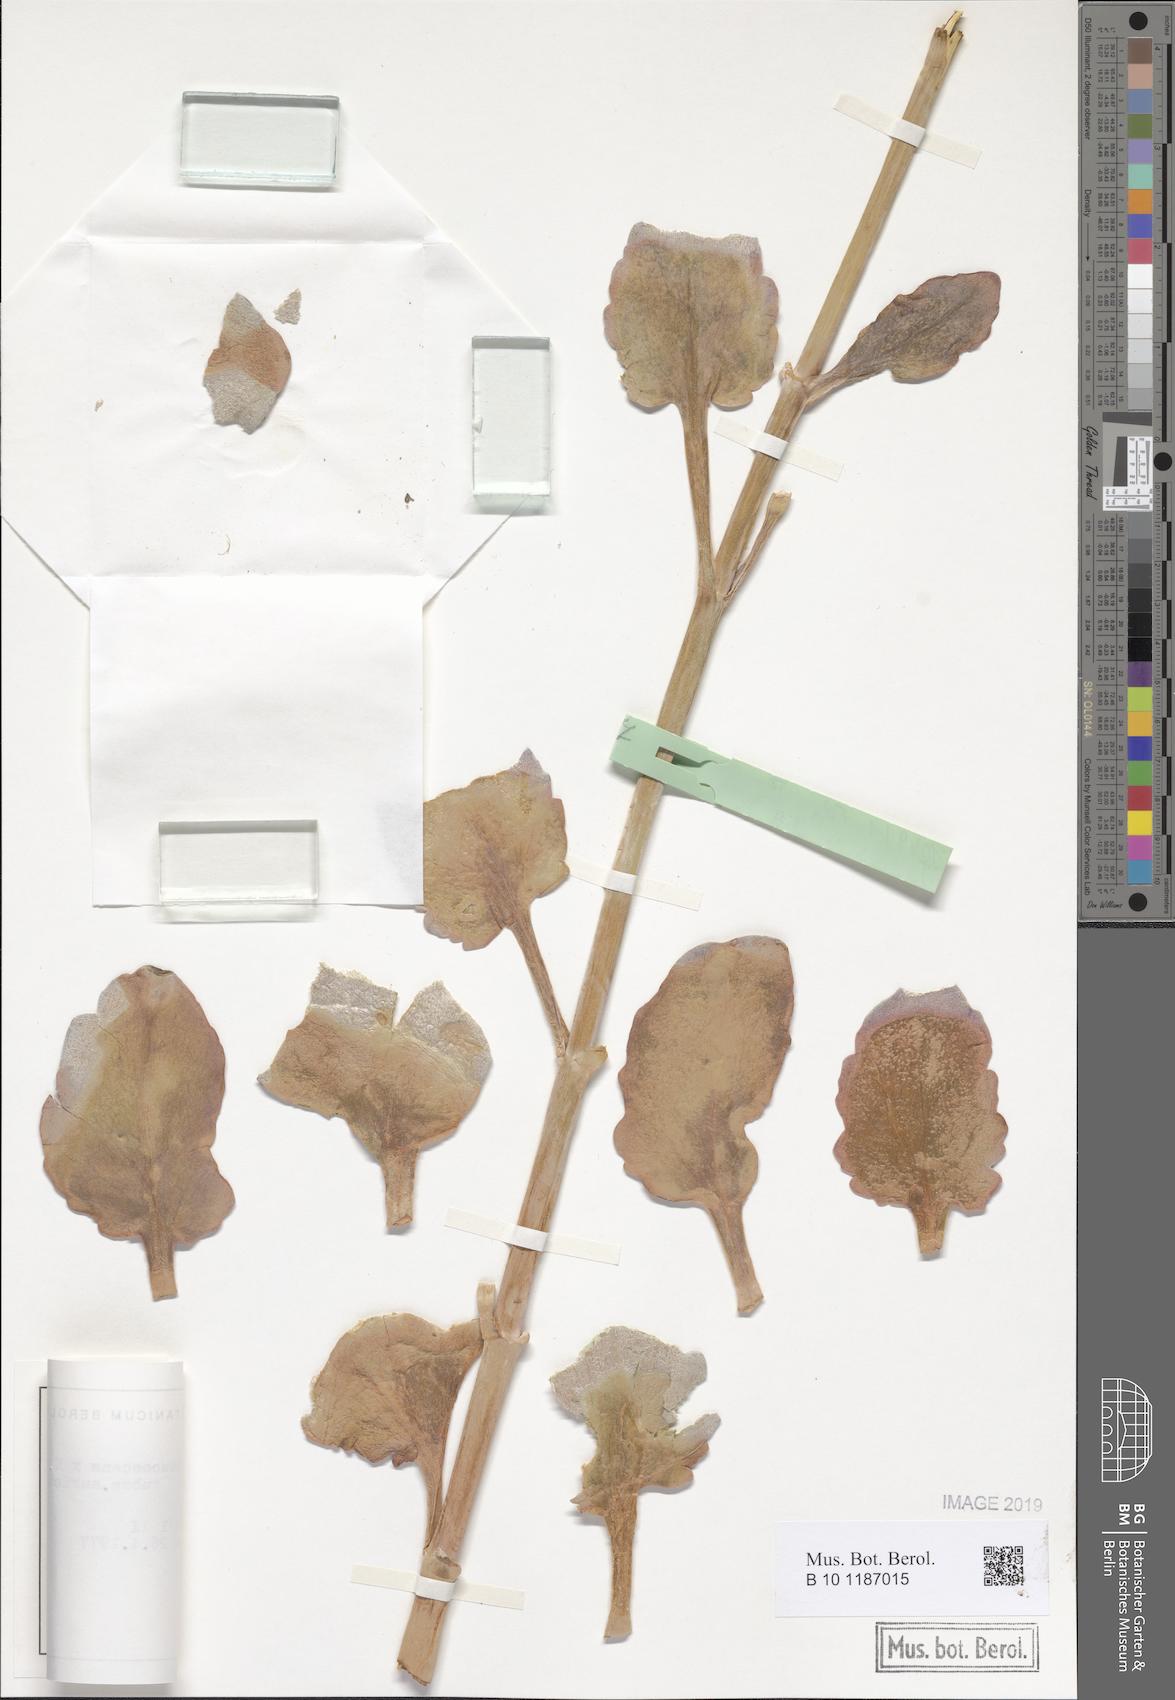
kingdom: Plantae
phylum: Tracheophyta
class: Magnoliopsida
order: Saxifragales
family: Crassulaceae
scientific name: Crassulaceae
